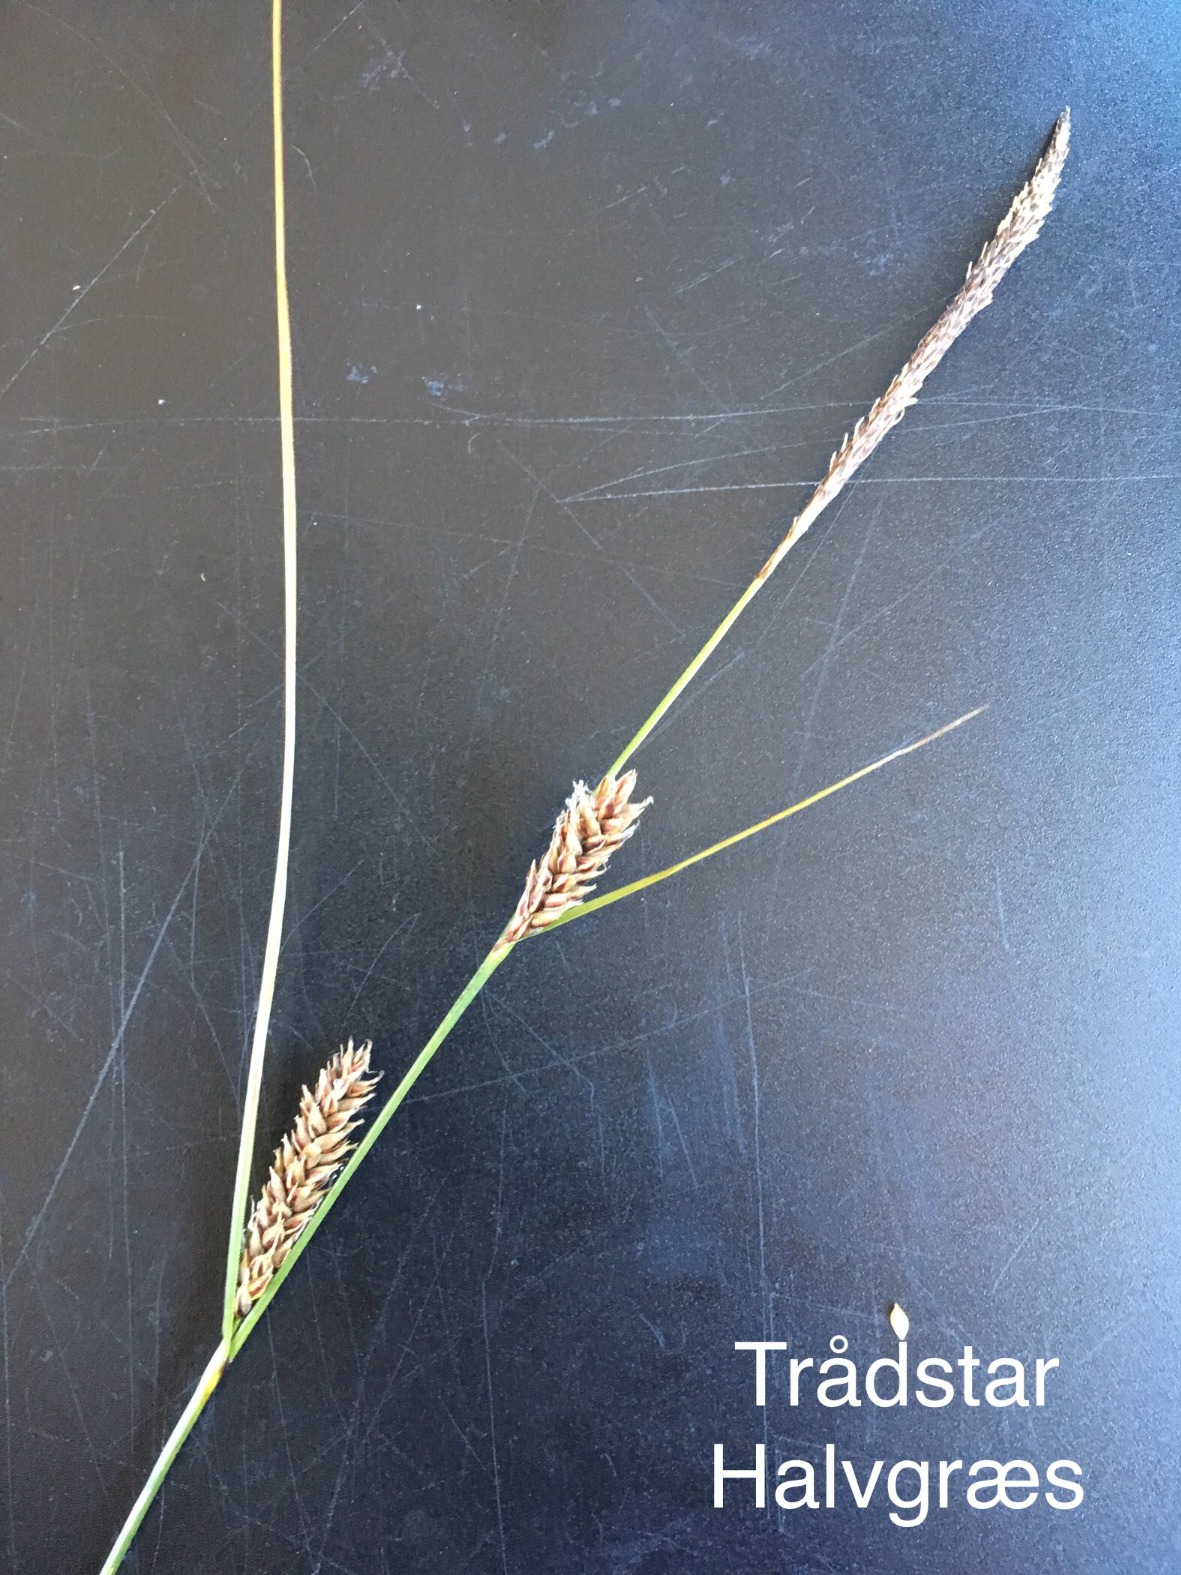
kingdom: Plantae
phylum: Tracheophyta
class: Liliopsida
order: Poales
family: Cyperaceae
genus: Carex
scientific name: Carex lasiocarpa
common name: Tråd-star
